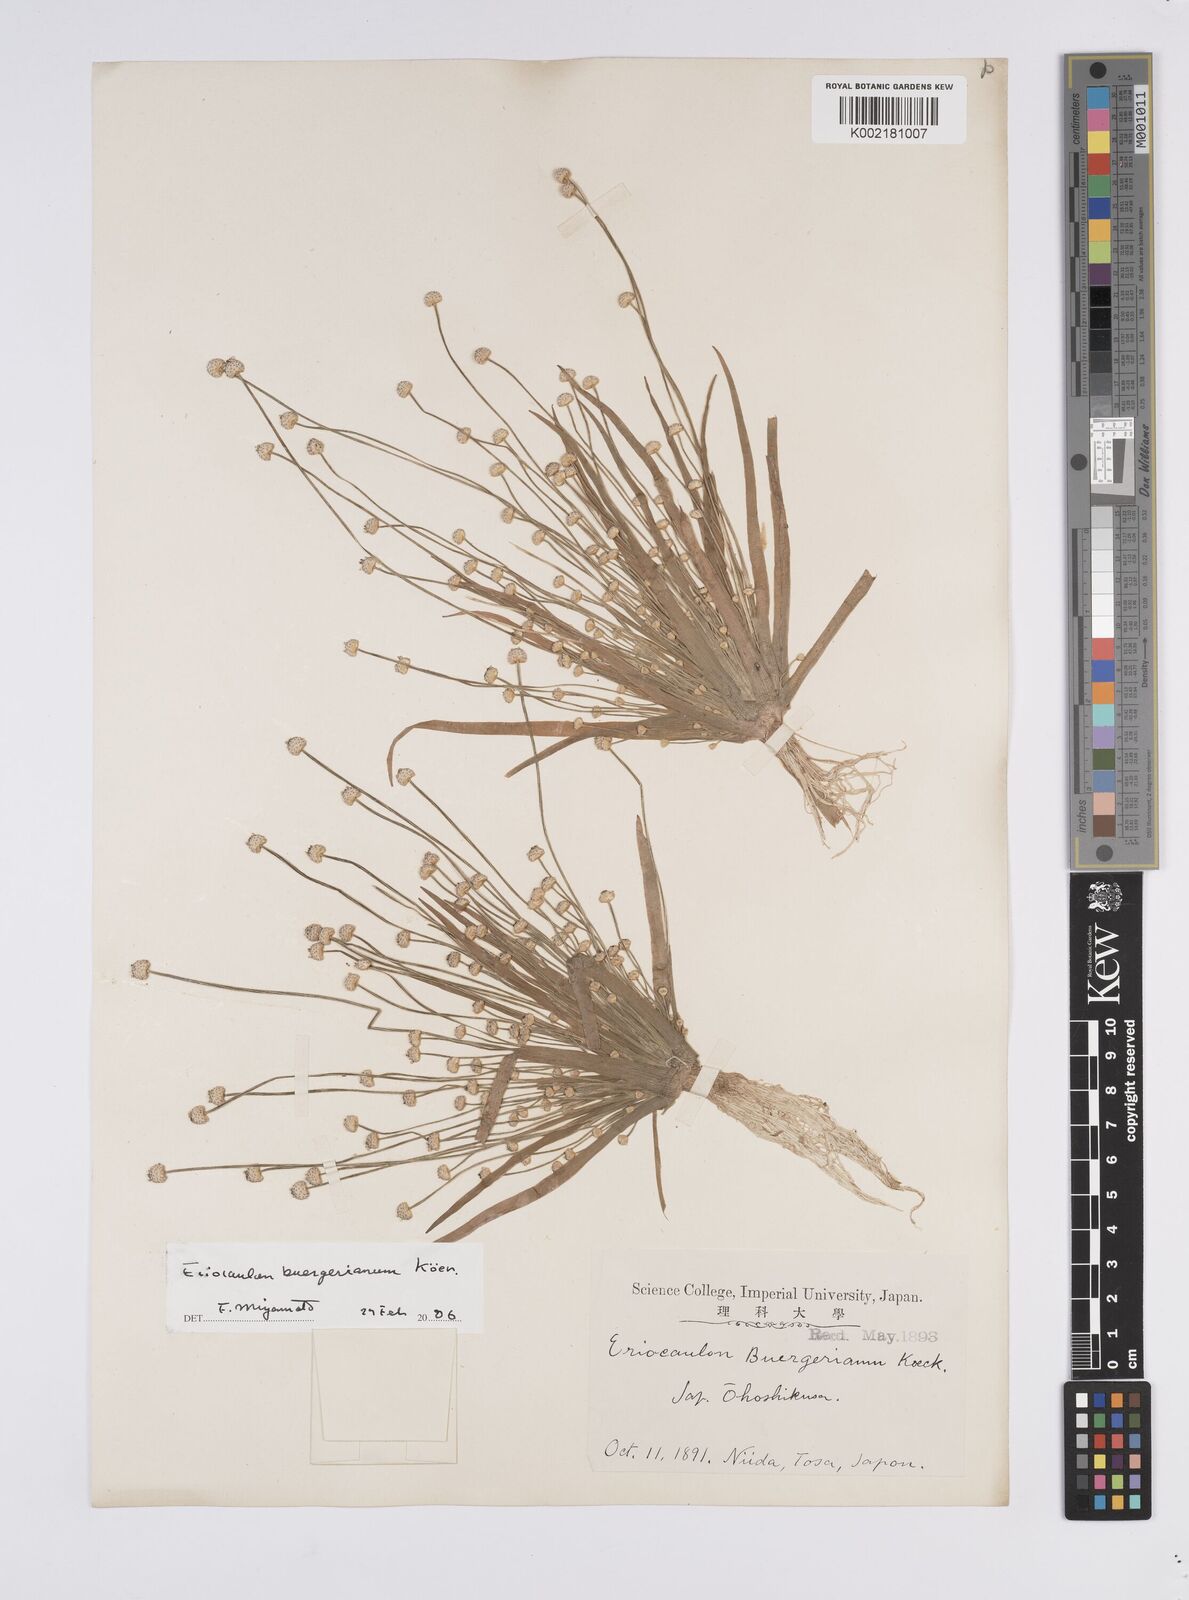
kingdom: Plantae
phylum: Tracheophyta
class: Liliopsida
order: Poales
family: Eriocaulaceae
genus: Eriocaulon
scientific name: Eriocaulon buergerianum
